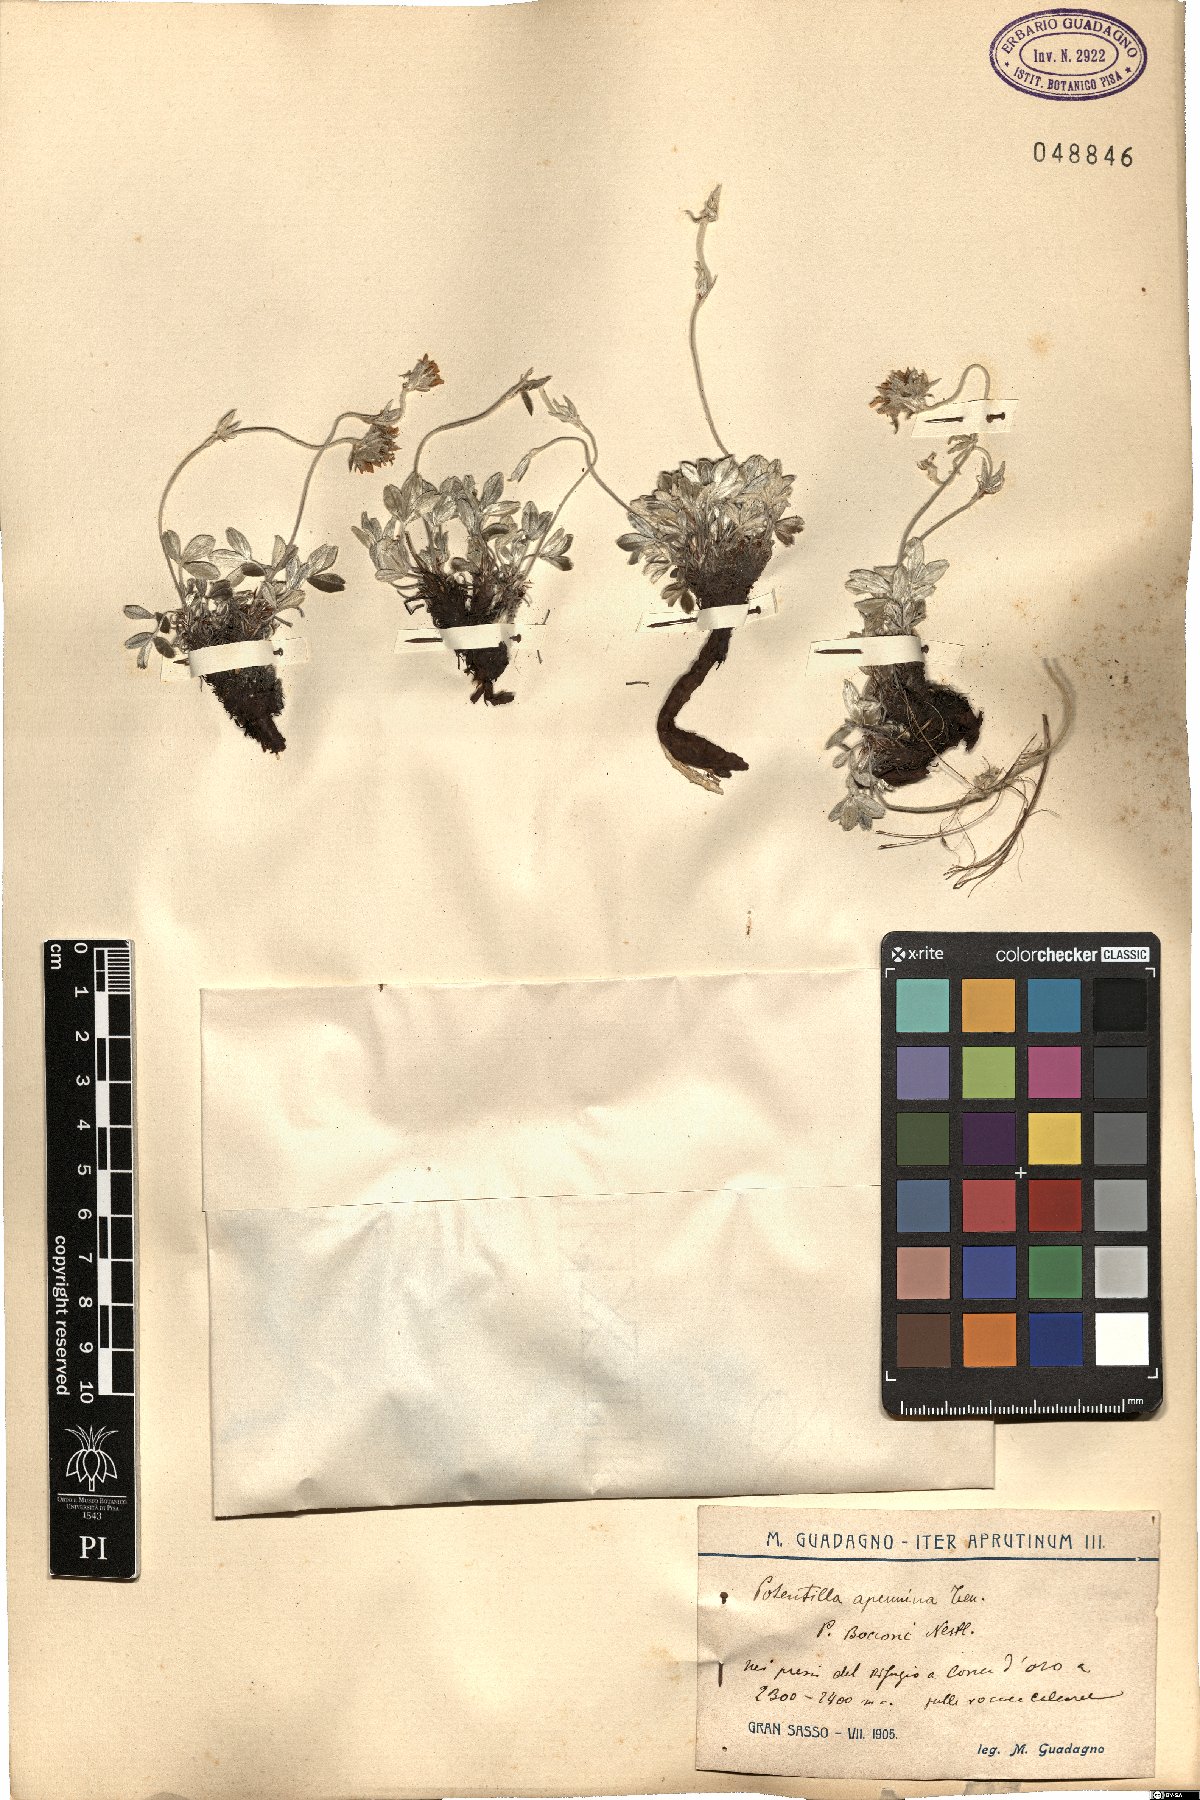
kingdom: Plantae
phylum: Tracheophyta
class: Magnoliopsida
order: Rosales
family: Rosaceae
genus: Potentilla
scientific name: Potentilla apennina
